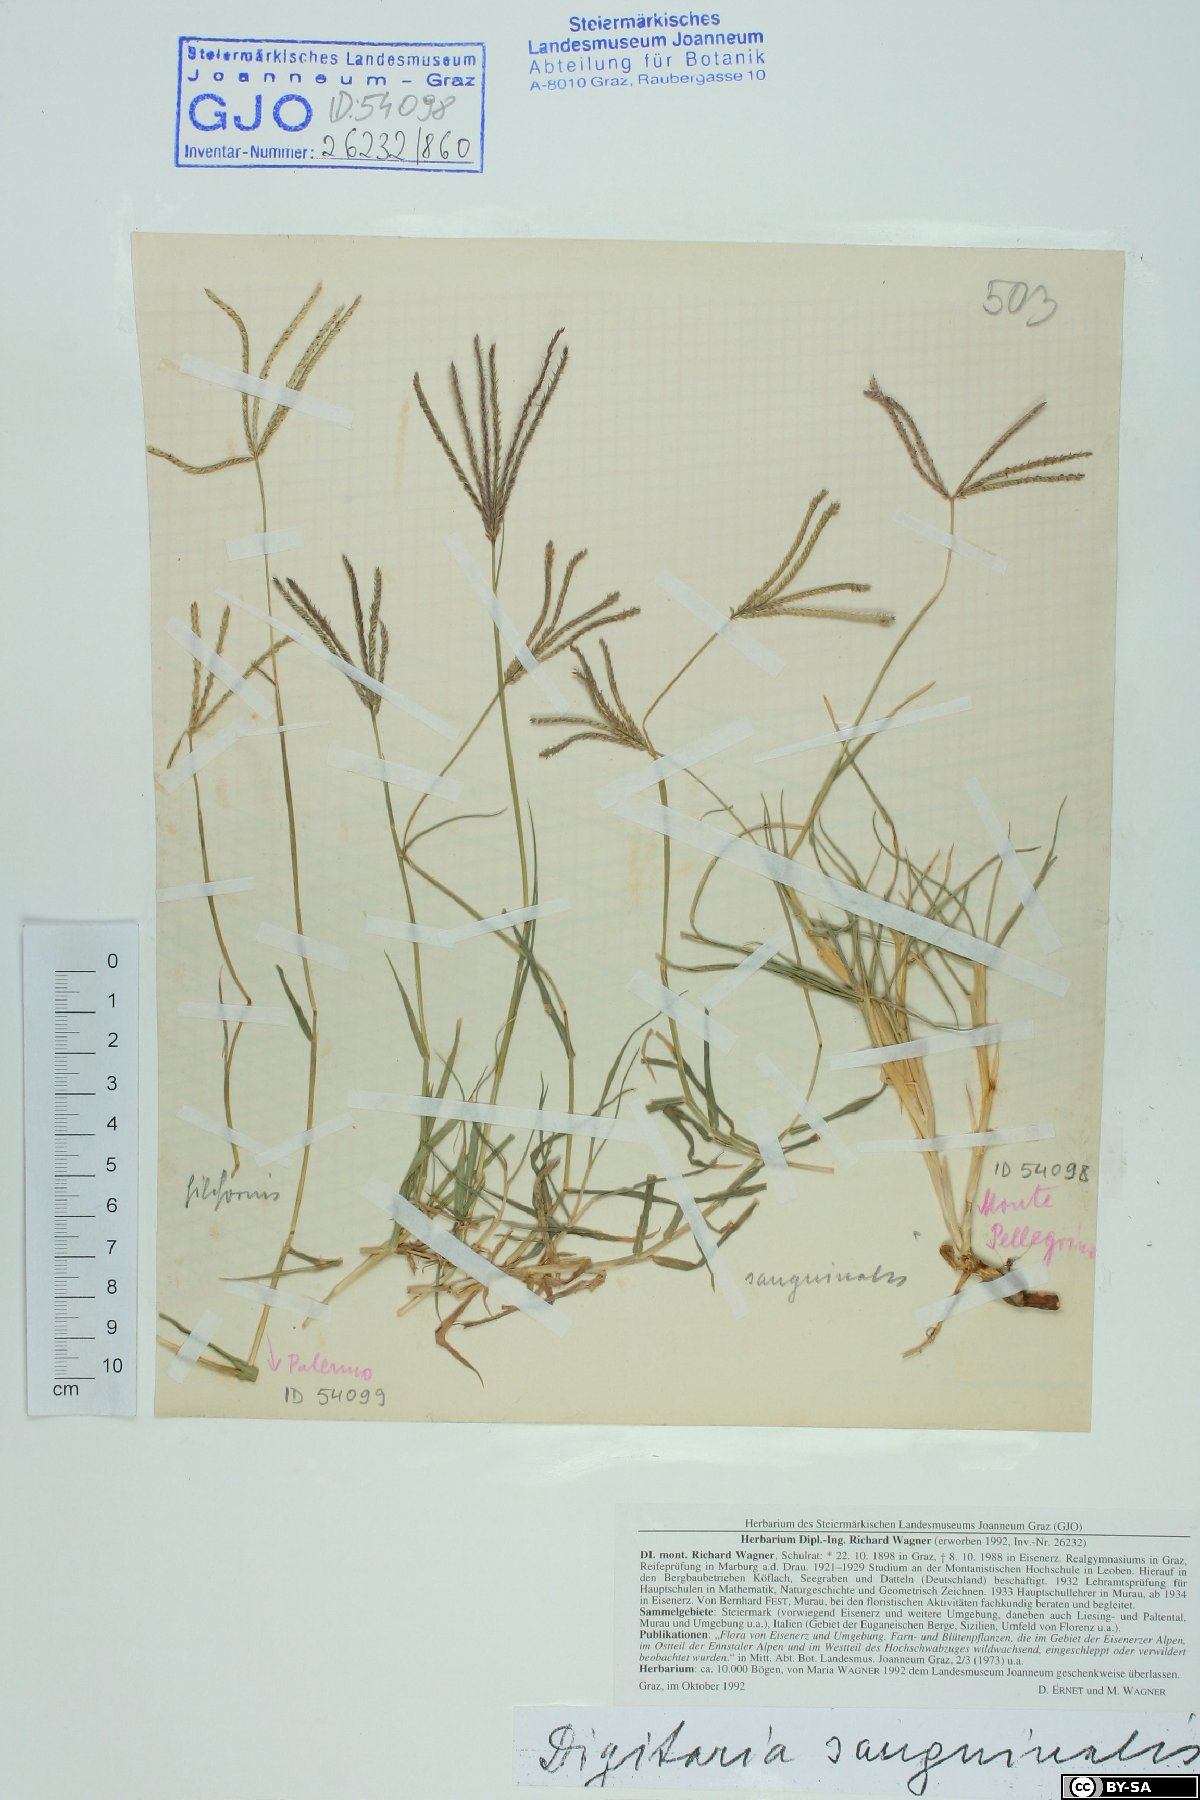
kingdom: Plantae
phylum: Tracheophyta
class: Liliopsida
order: Poales
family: Poaceae
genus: Digitaria
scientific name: Digitaria sanguinalis
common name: Hairy crabgrass
